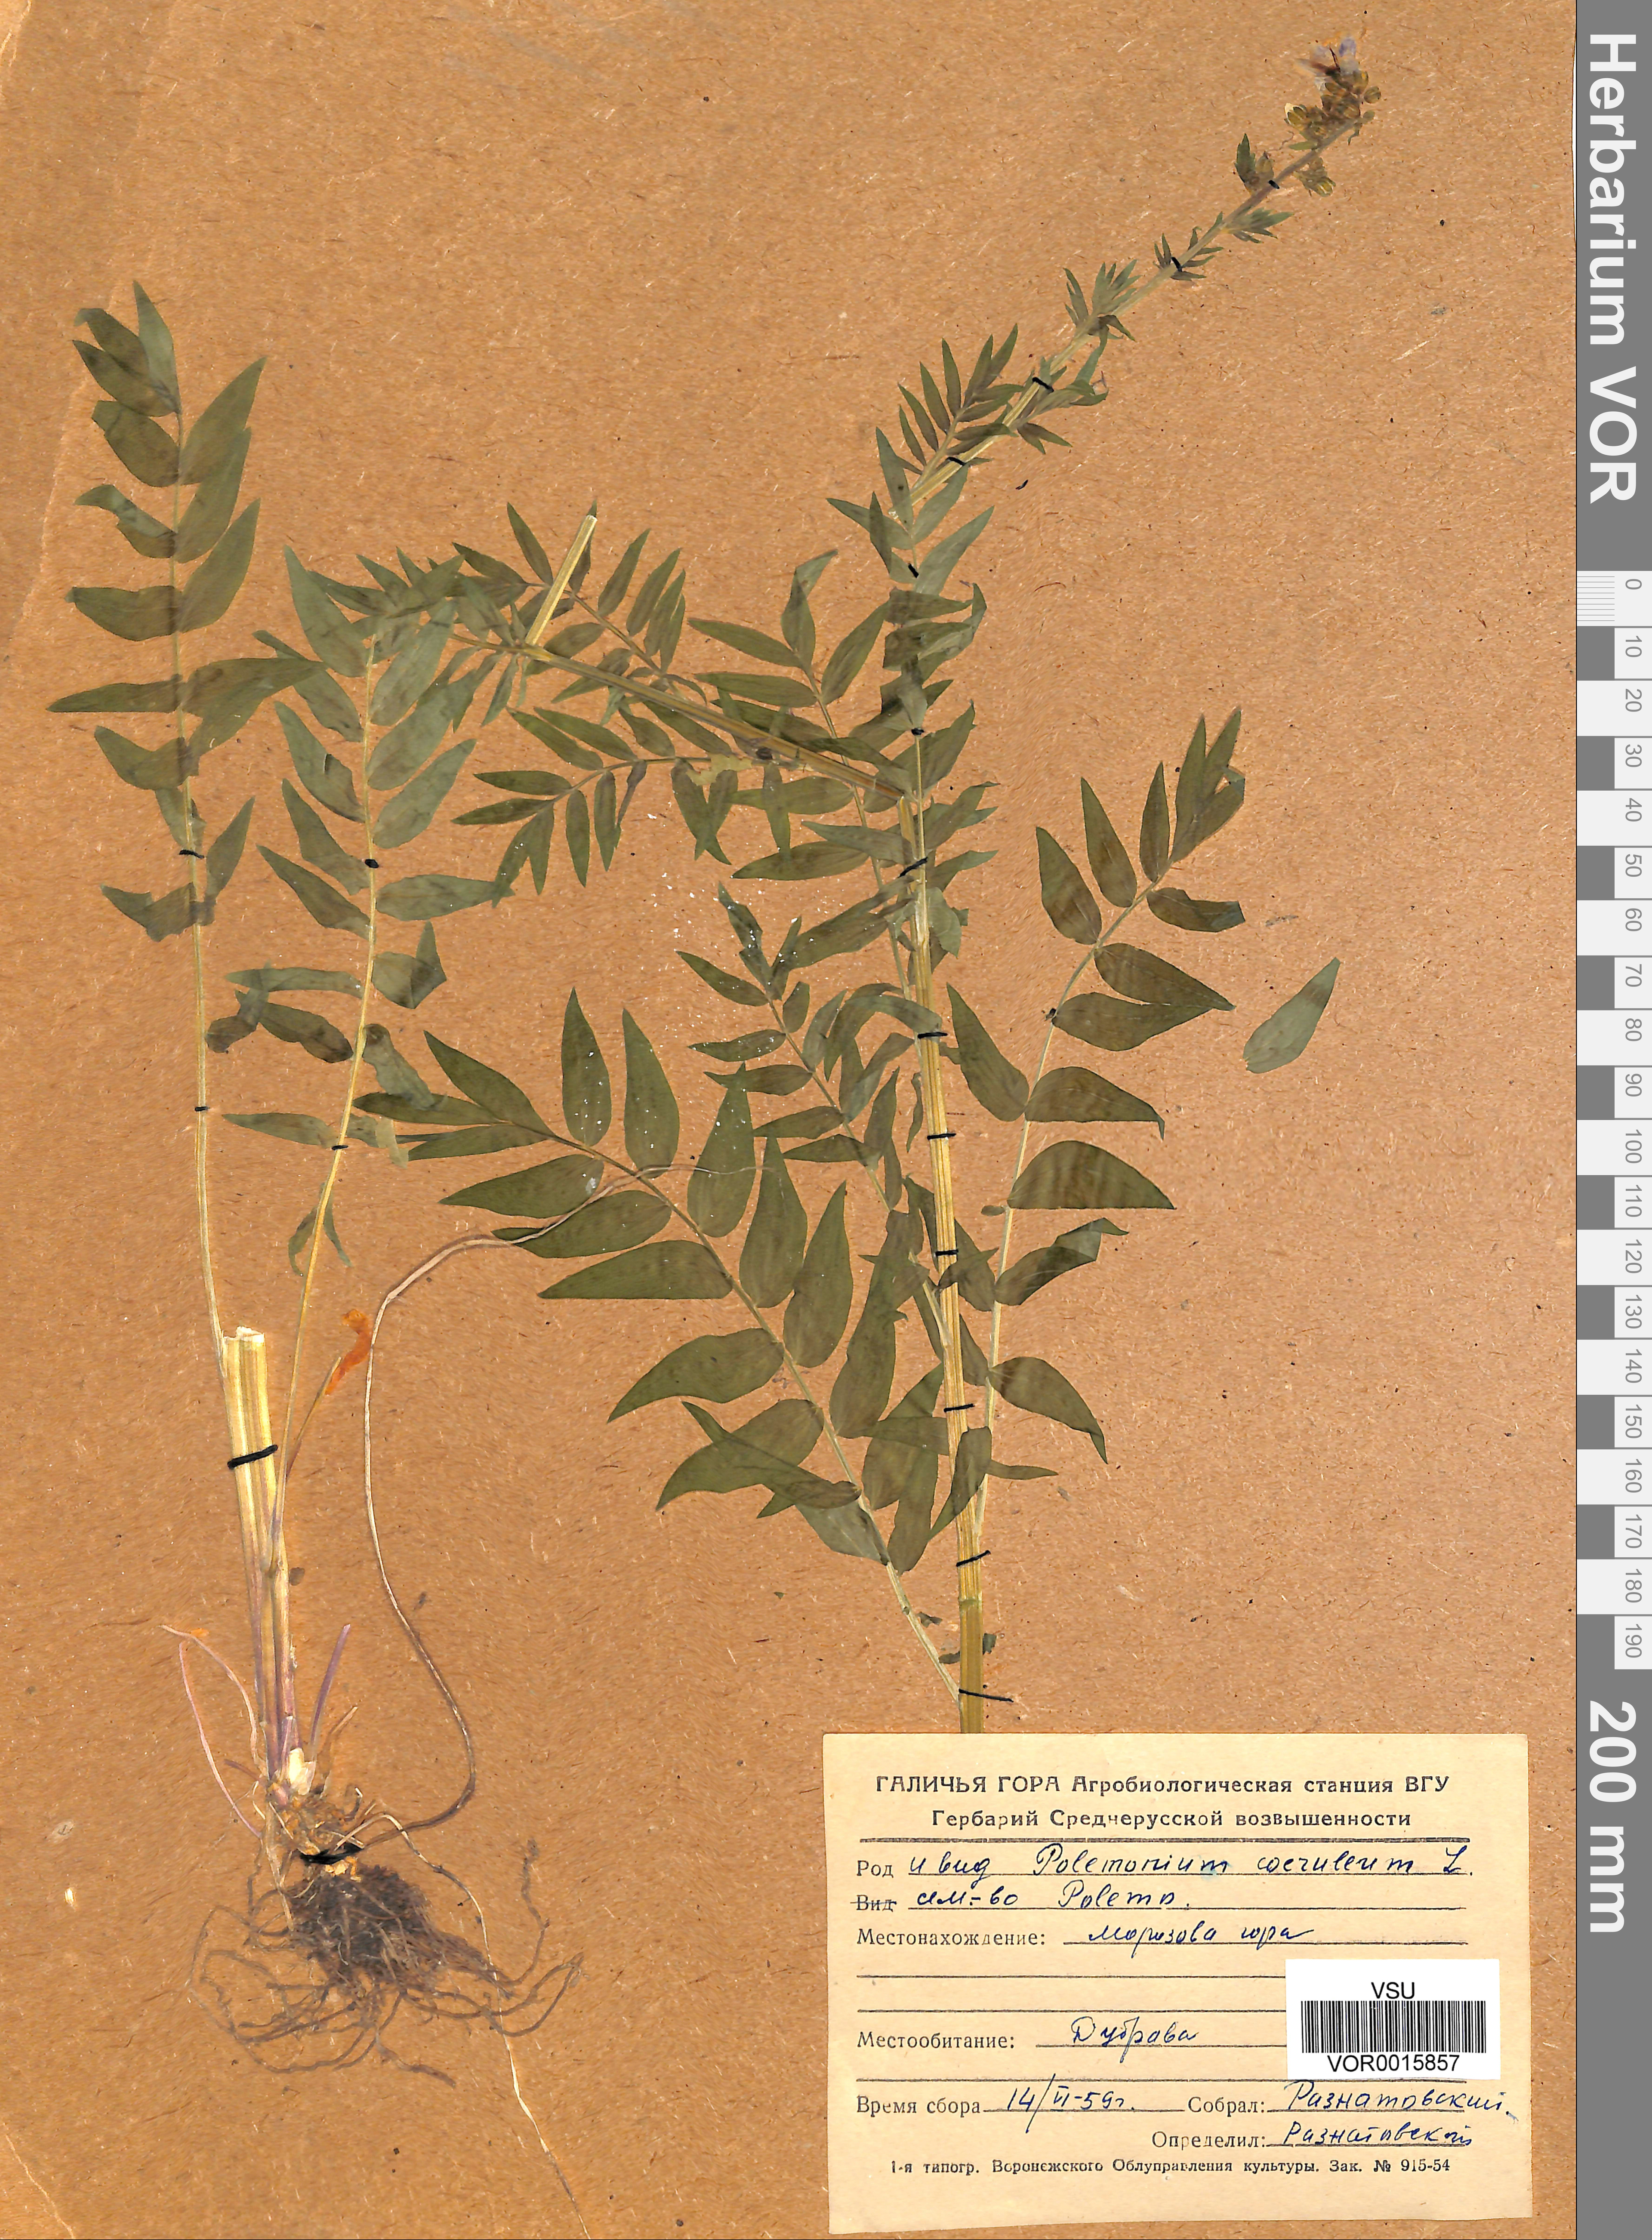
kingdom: Plantae
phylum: Tracheophyta
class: Magnoliopsida
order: Ericales
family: Polemoniaceae
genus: Polemonium
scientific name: Polemonium caeruleum
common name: Jacob's-ladder
